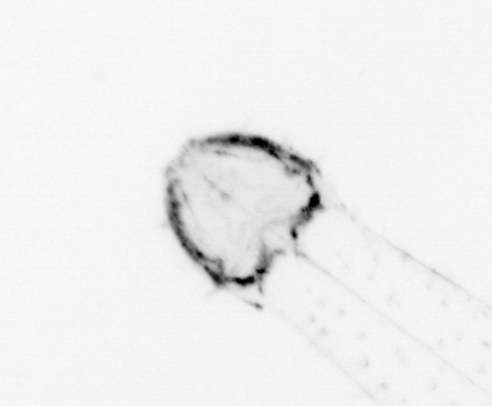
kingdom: Animalia
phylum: Chaetognatha
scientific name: Chaetognatha
